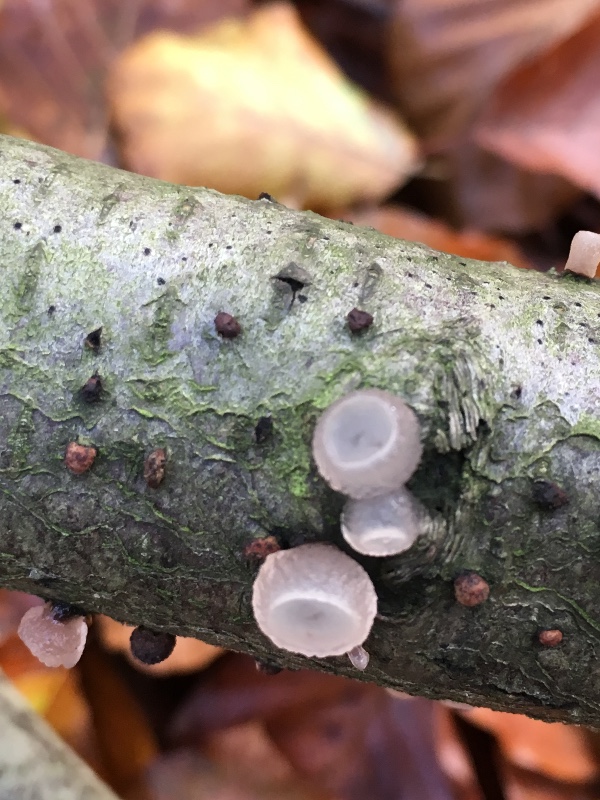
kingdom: Fungi
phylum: Ascomycota
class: Leotiomycetes
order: Helotiales
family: Gelatinodiscaceae
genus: Neobulgaria
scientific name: Neobulgaria pura
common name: bleg bævreskive
